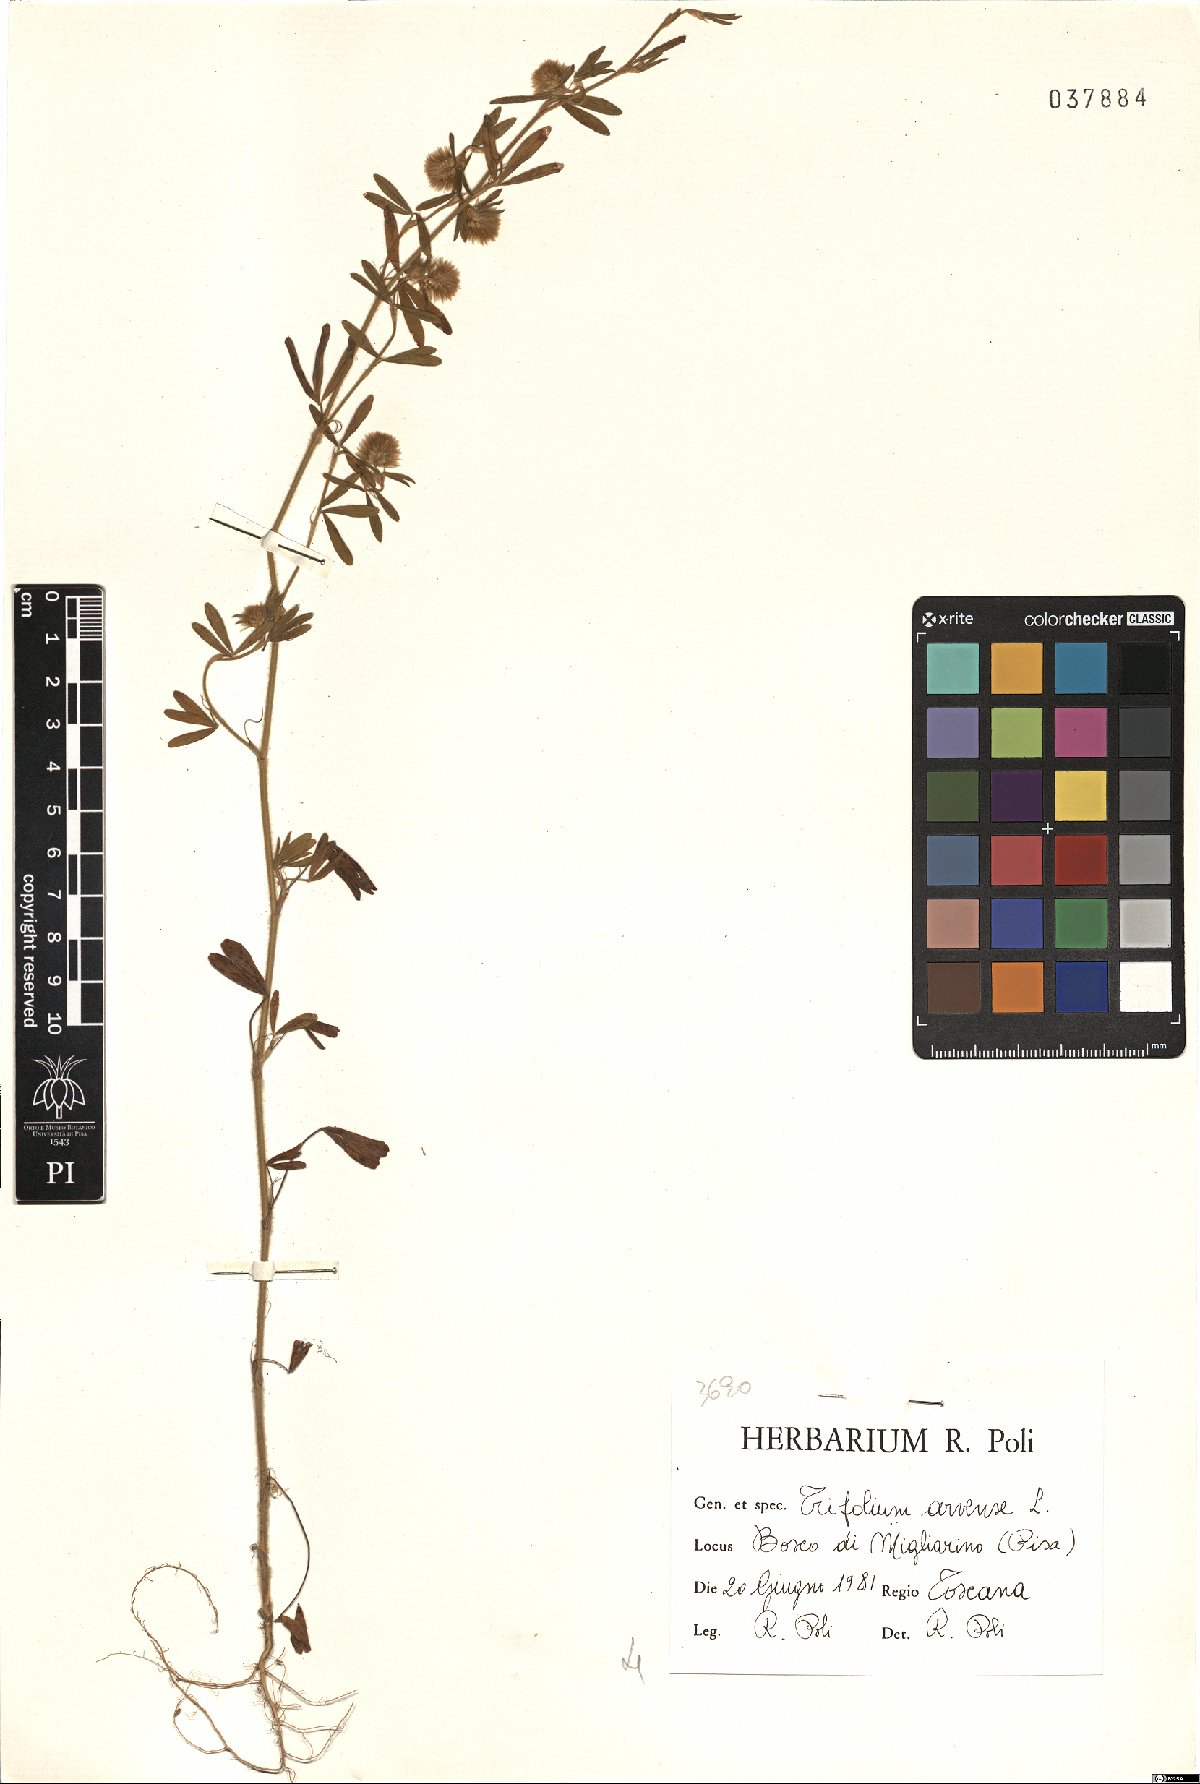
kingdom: Plantae
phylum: Tracheophyta
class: Magnoliopsida
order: Fabales
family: Fabaceae
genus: Trifolium
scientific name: Trifolium arvense
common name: Hare's-foot clover
